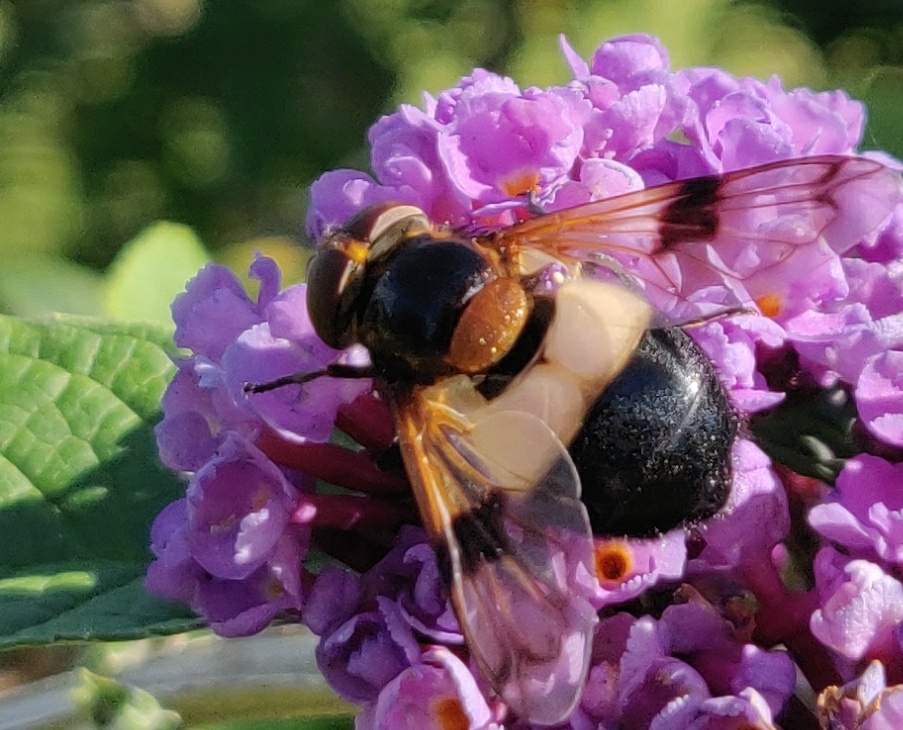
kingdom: Animalia
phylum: Arthropoda
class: Insecta
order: Diptera
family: Syrphidae
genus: Volucella
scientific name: Volucella pellucens
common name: Hvidbåndet humlesvirreflue
